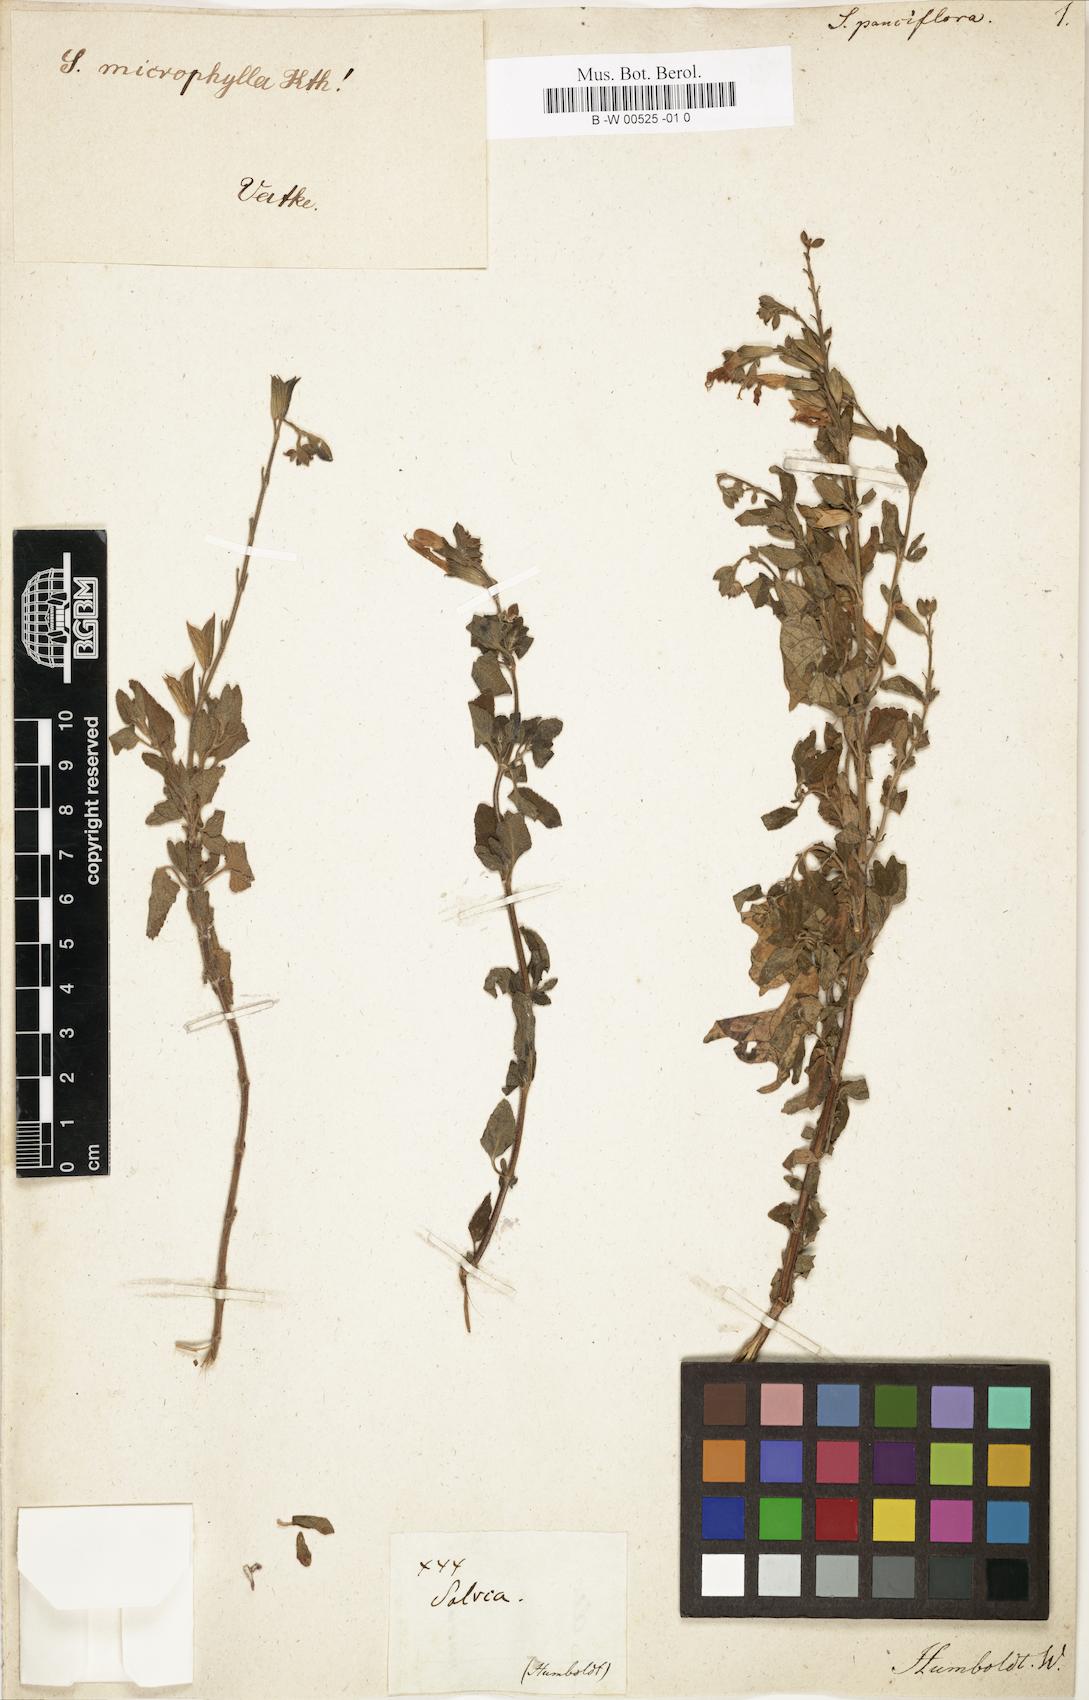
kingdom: Plantae
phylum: Tracheophyta
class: Magnoliopsida
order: Lamiales
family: Lamiaceae
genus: Salvia
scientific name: Salvia reflexa
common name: Mintweed
